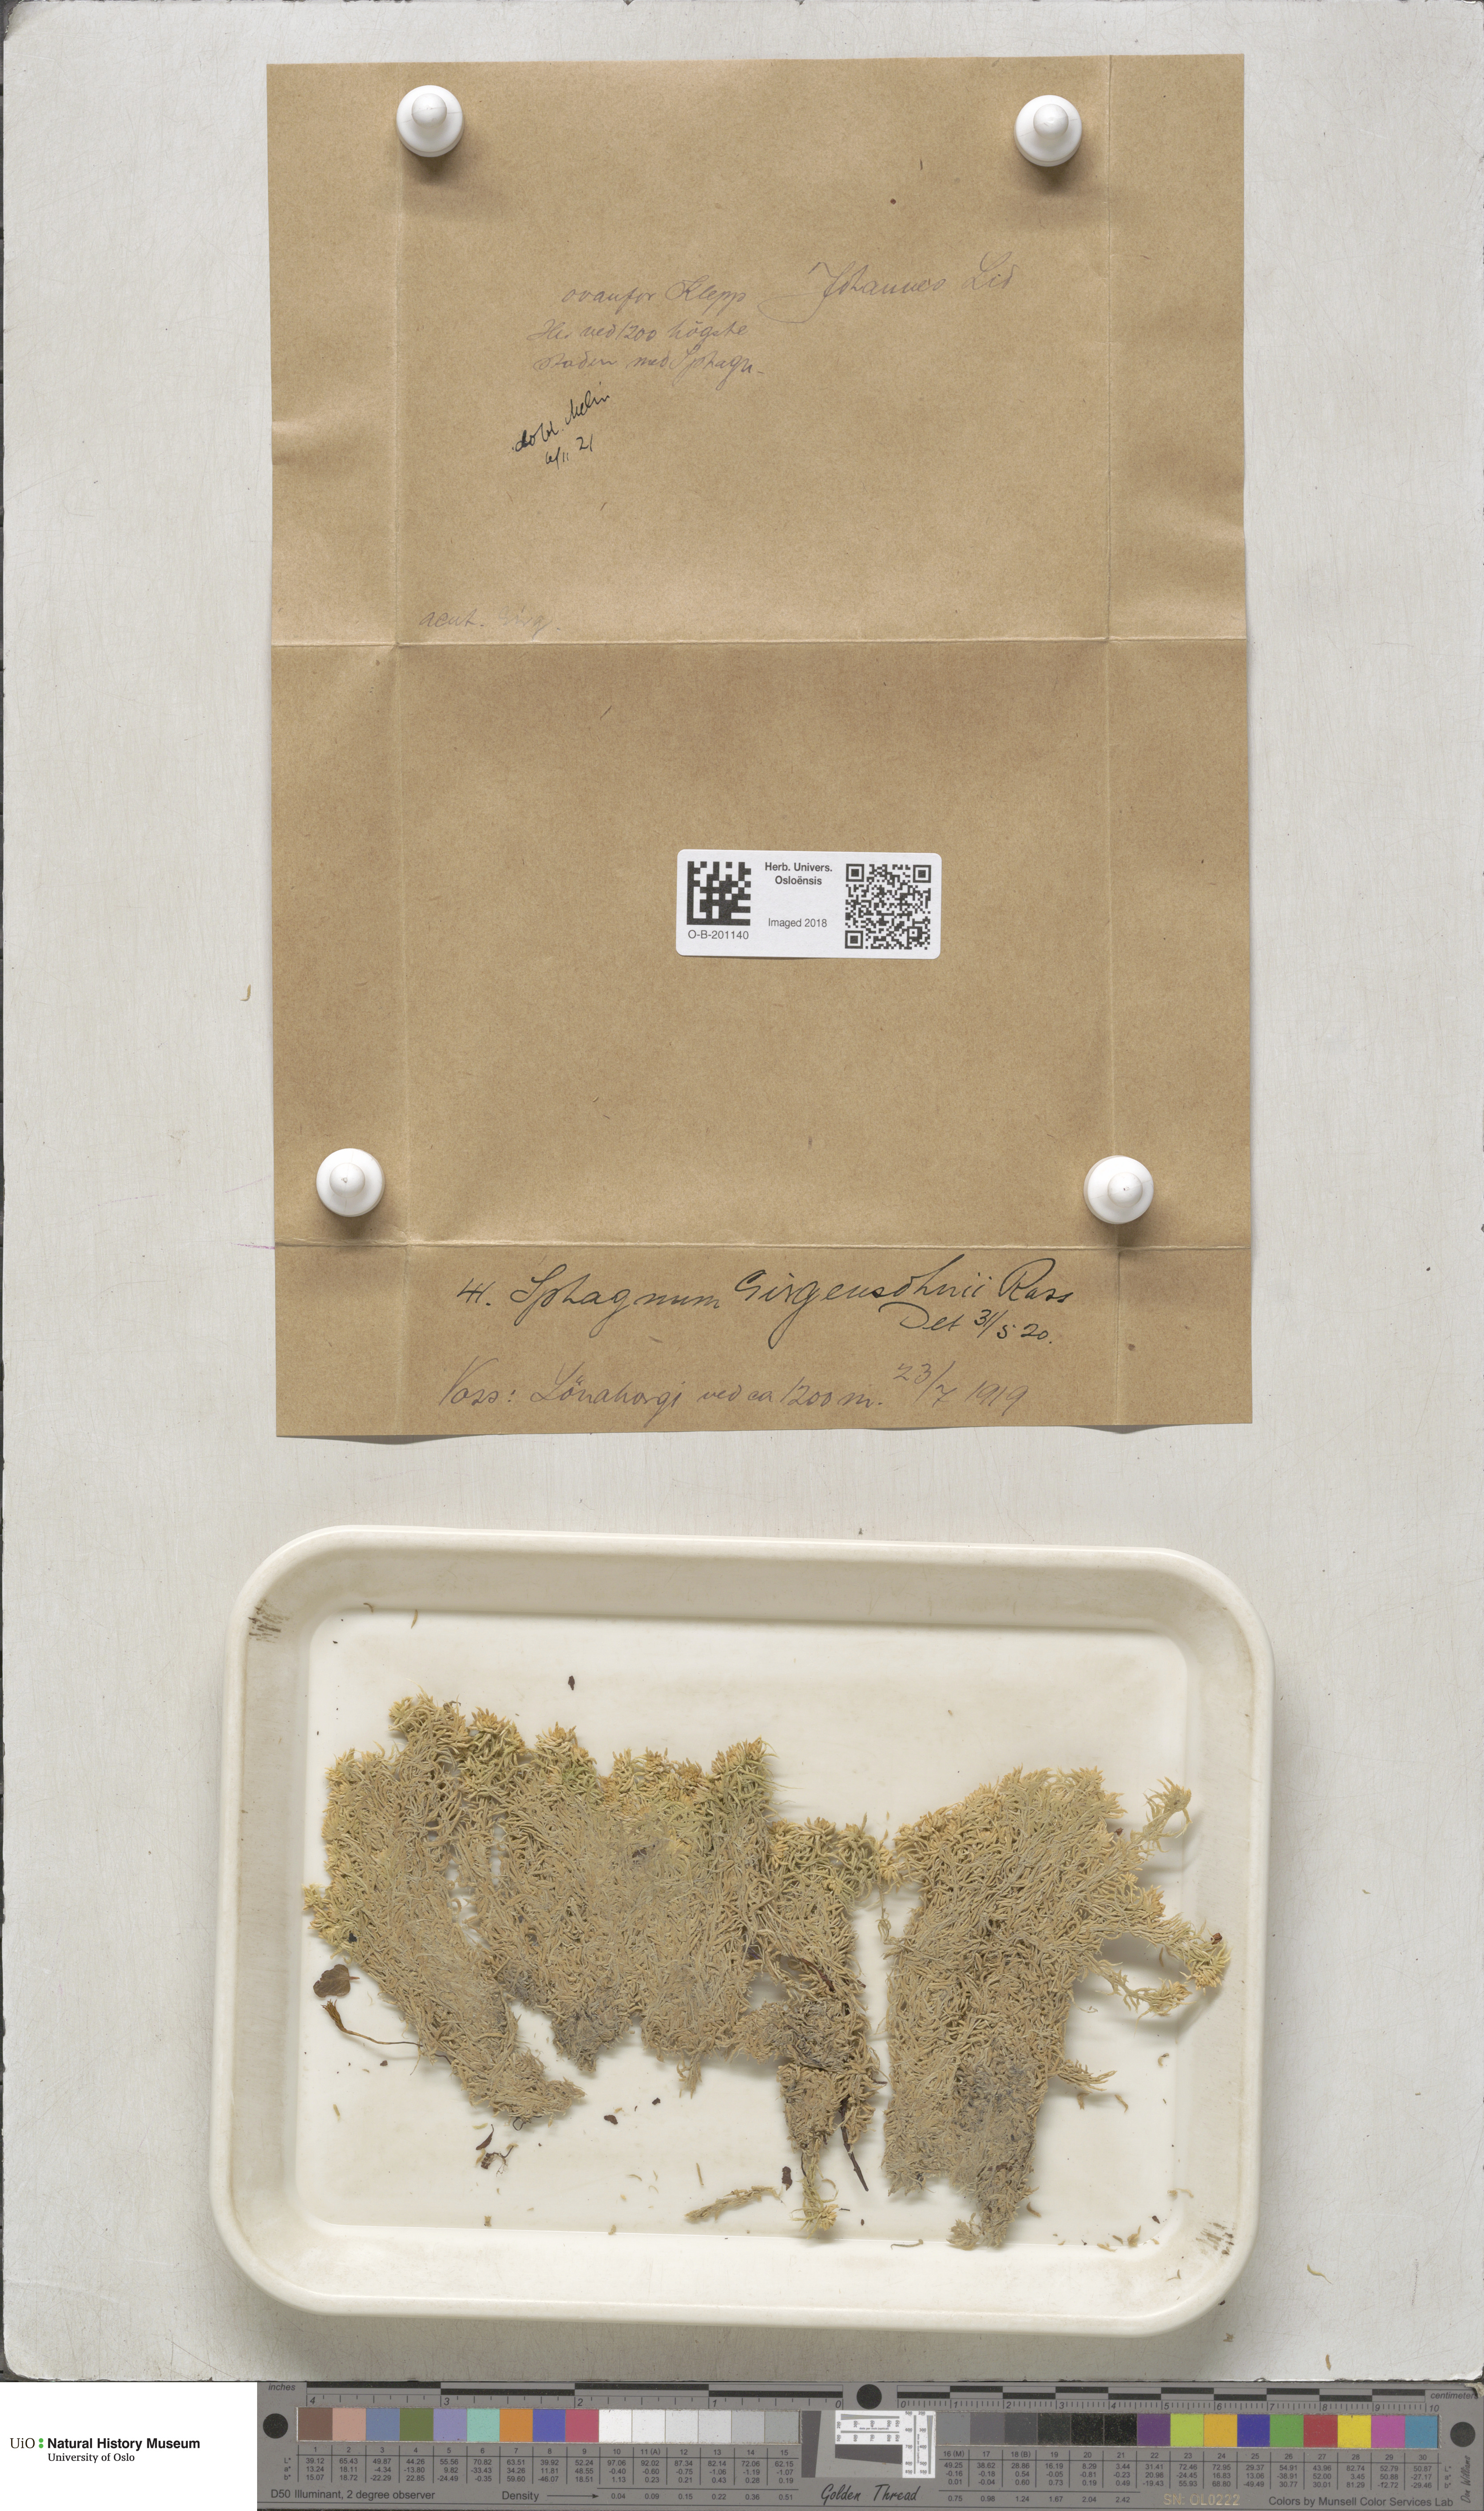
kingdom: Plantae
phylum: Bryophyta
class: Sphagnopsida
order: Sphagnales
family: Sphagnaceae
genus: Sphagnum
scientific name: Sphagnum girgensohnii
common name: Girgensohn's peat moss
